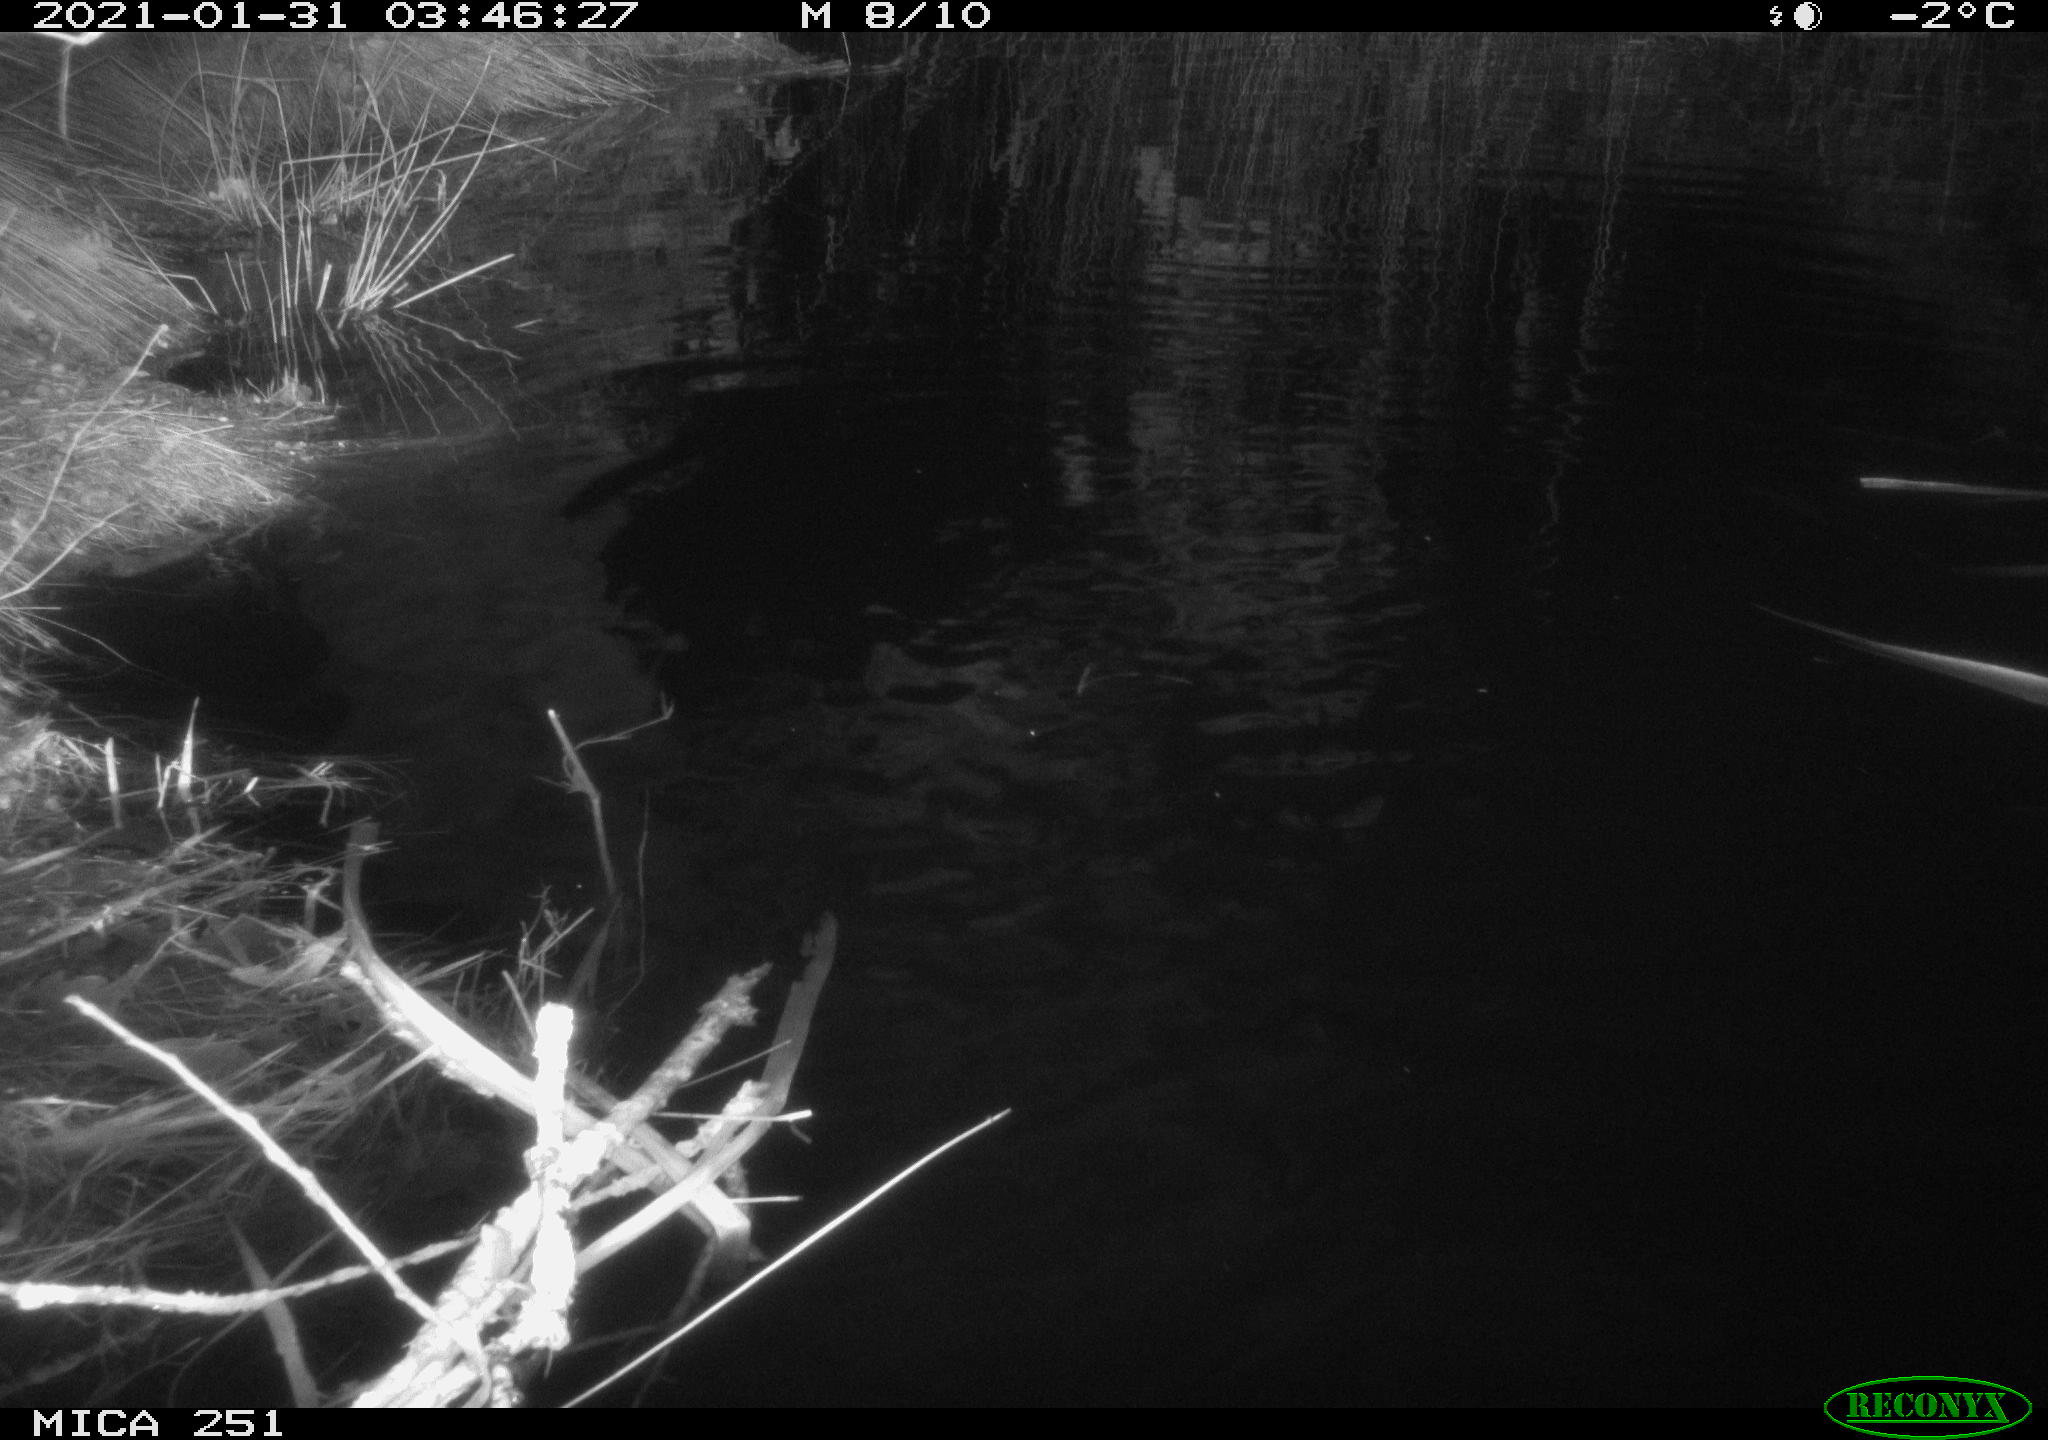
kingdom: Animalia
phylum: Chordata
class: Aves
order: Anseriformes
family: Anatidae
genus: Anas
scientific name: Anas platyrhynchos
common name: Mallard
